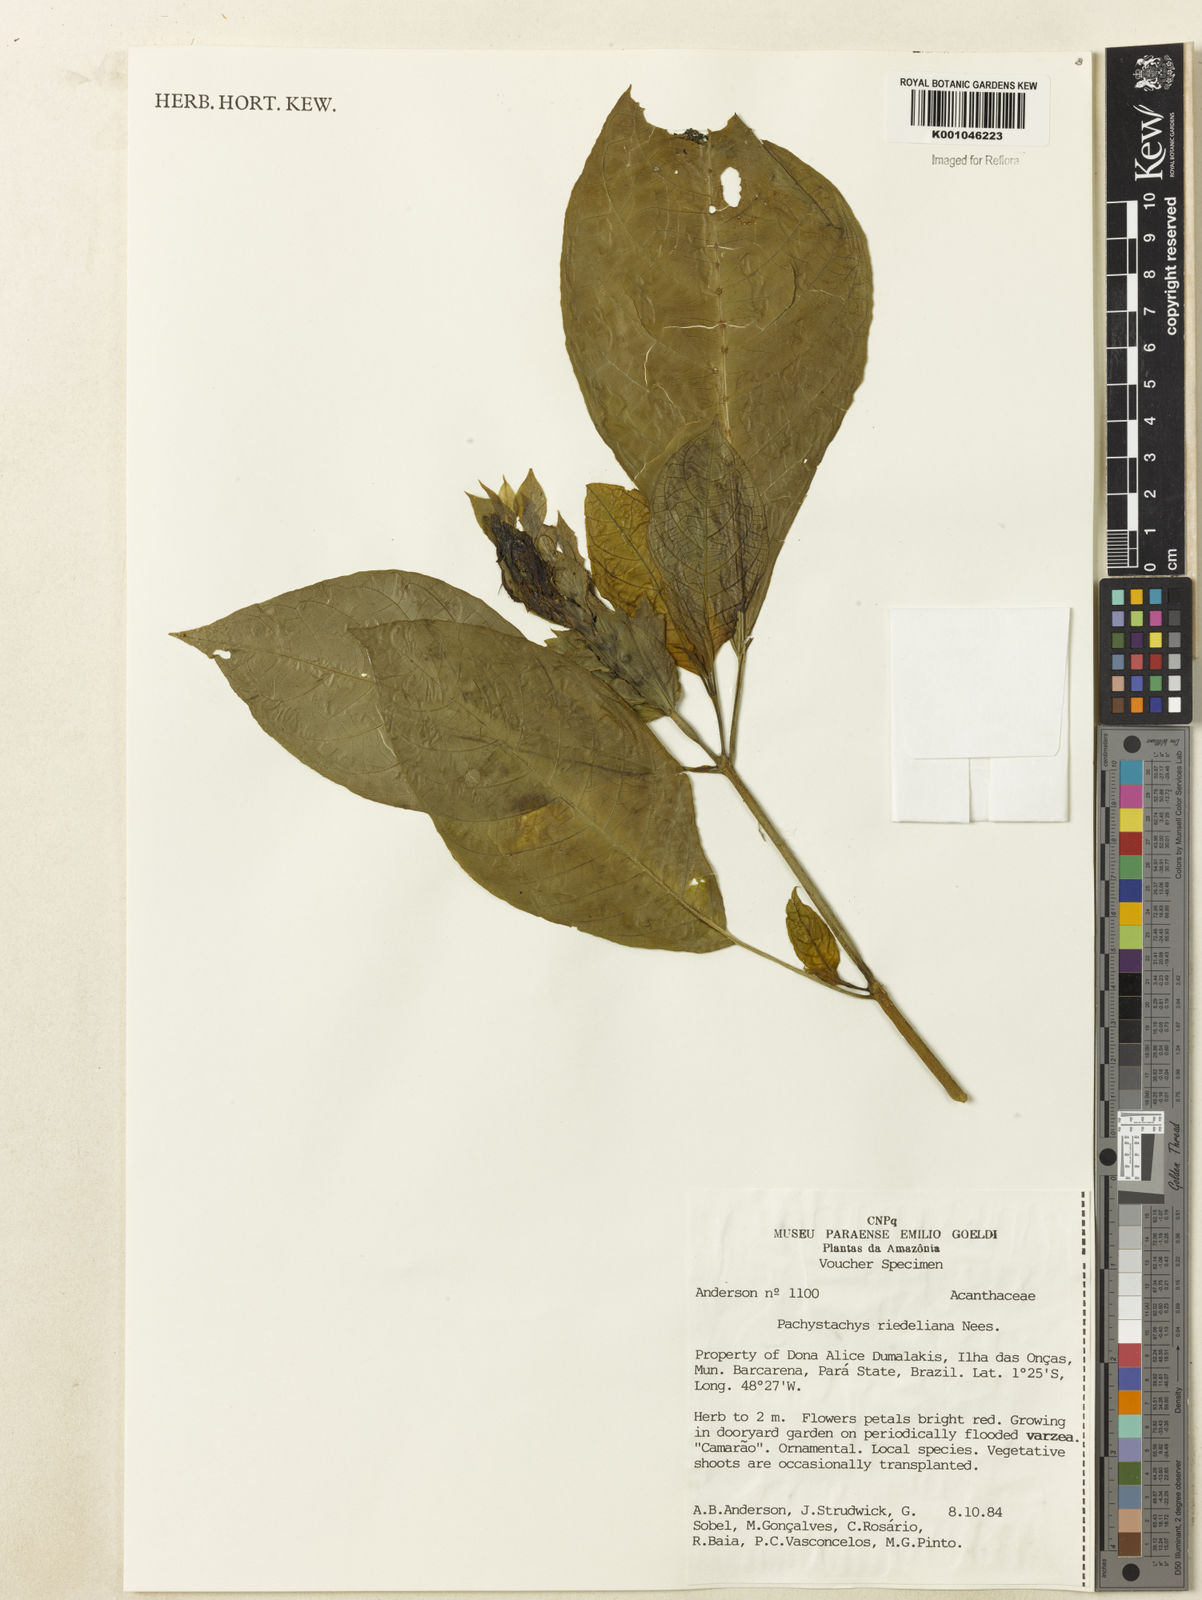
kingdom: Plantae
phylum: Tracheophyta
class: Magnoliopsida
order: Lamiales
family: Acanthaceae
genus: Pachystachys
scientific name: Pachystachys spicata
